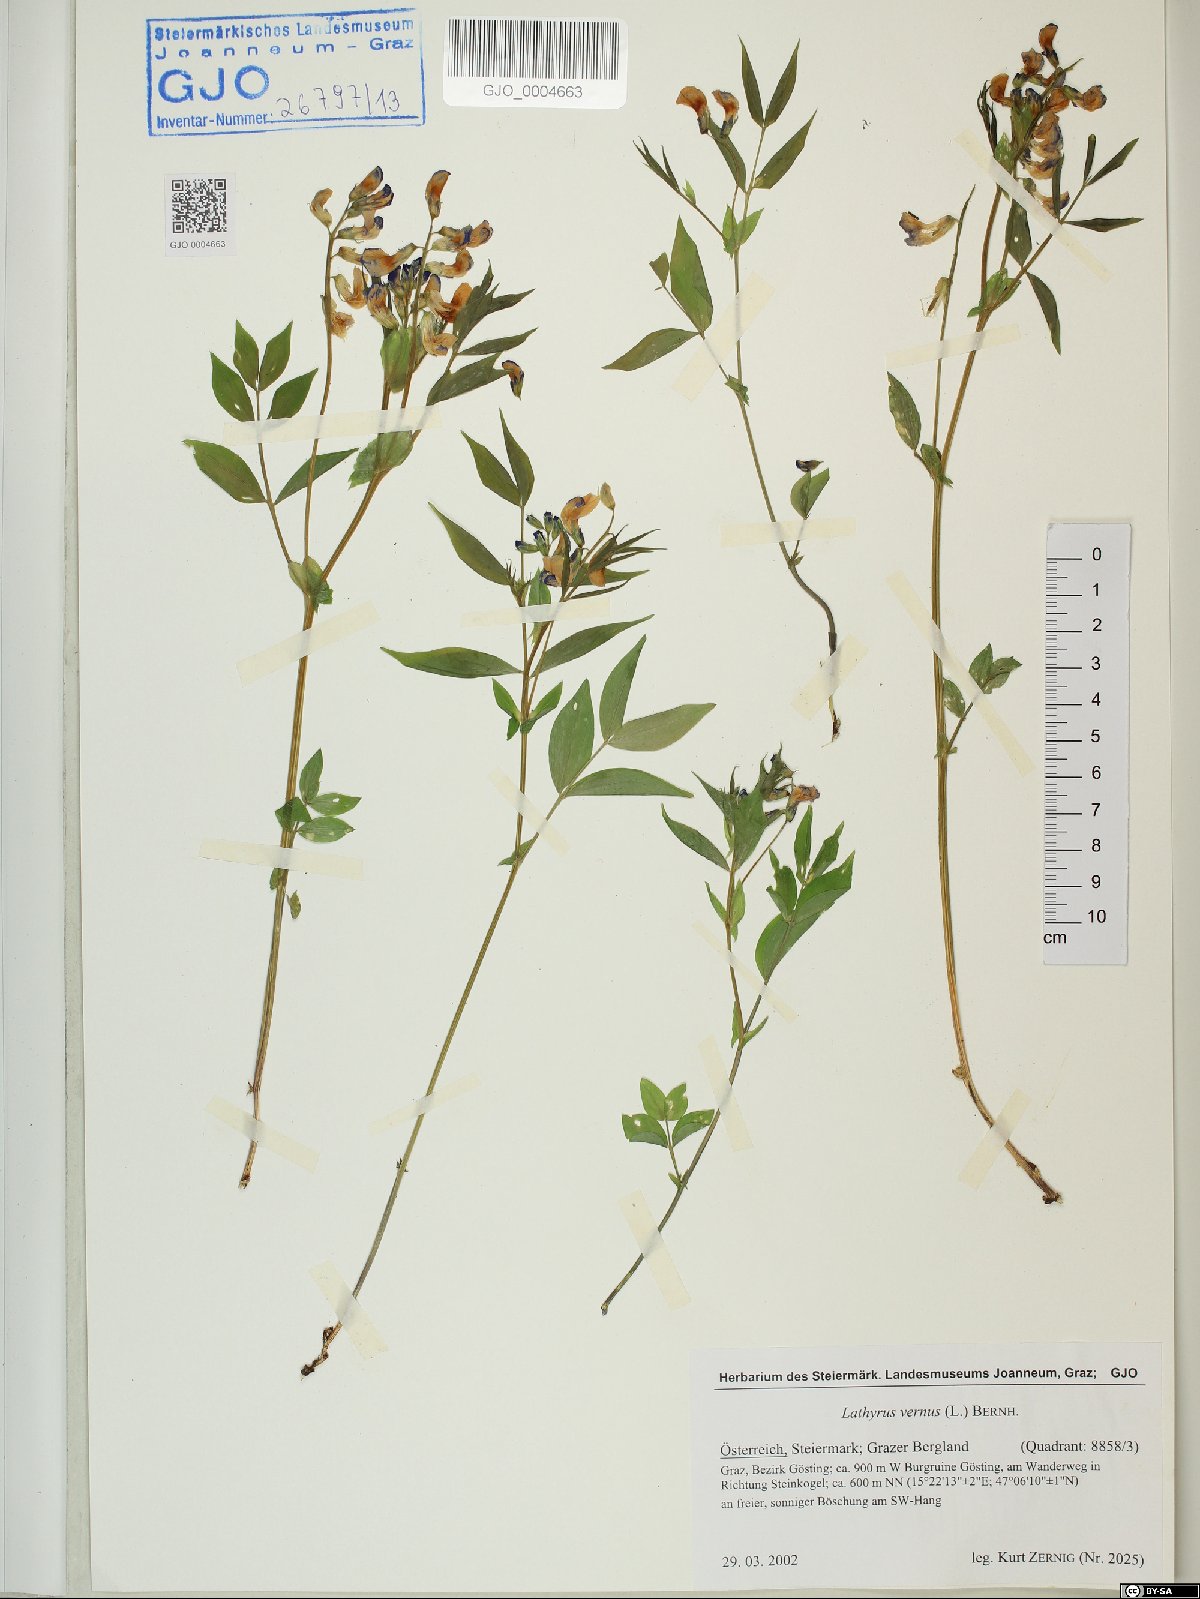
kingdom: Plantae
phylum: Tracheophyta
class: Magnoliopsida
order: Fabales
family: Fabaceae
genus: Lathyrus
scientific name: Lathyrus vernus
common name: Spring pea
